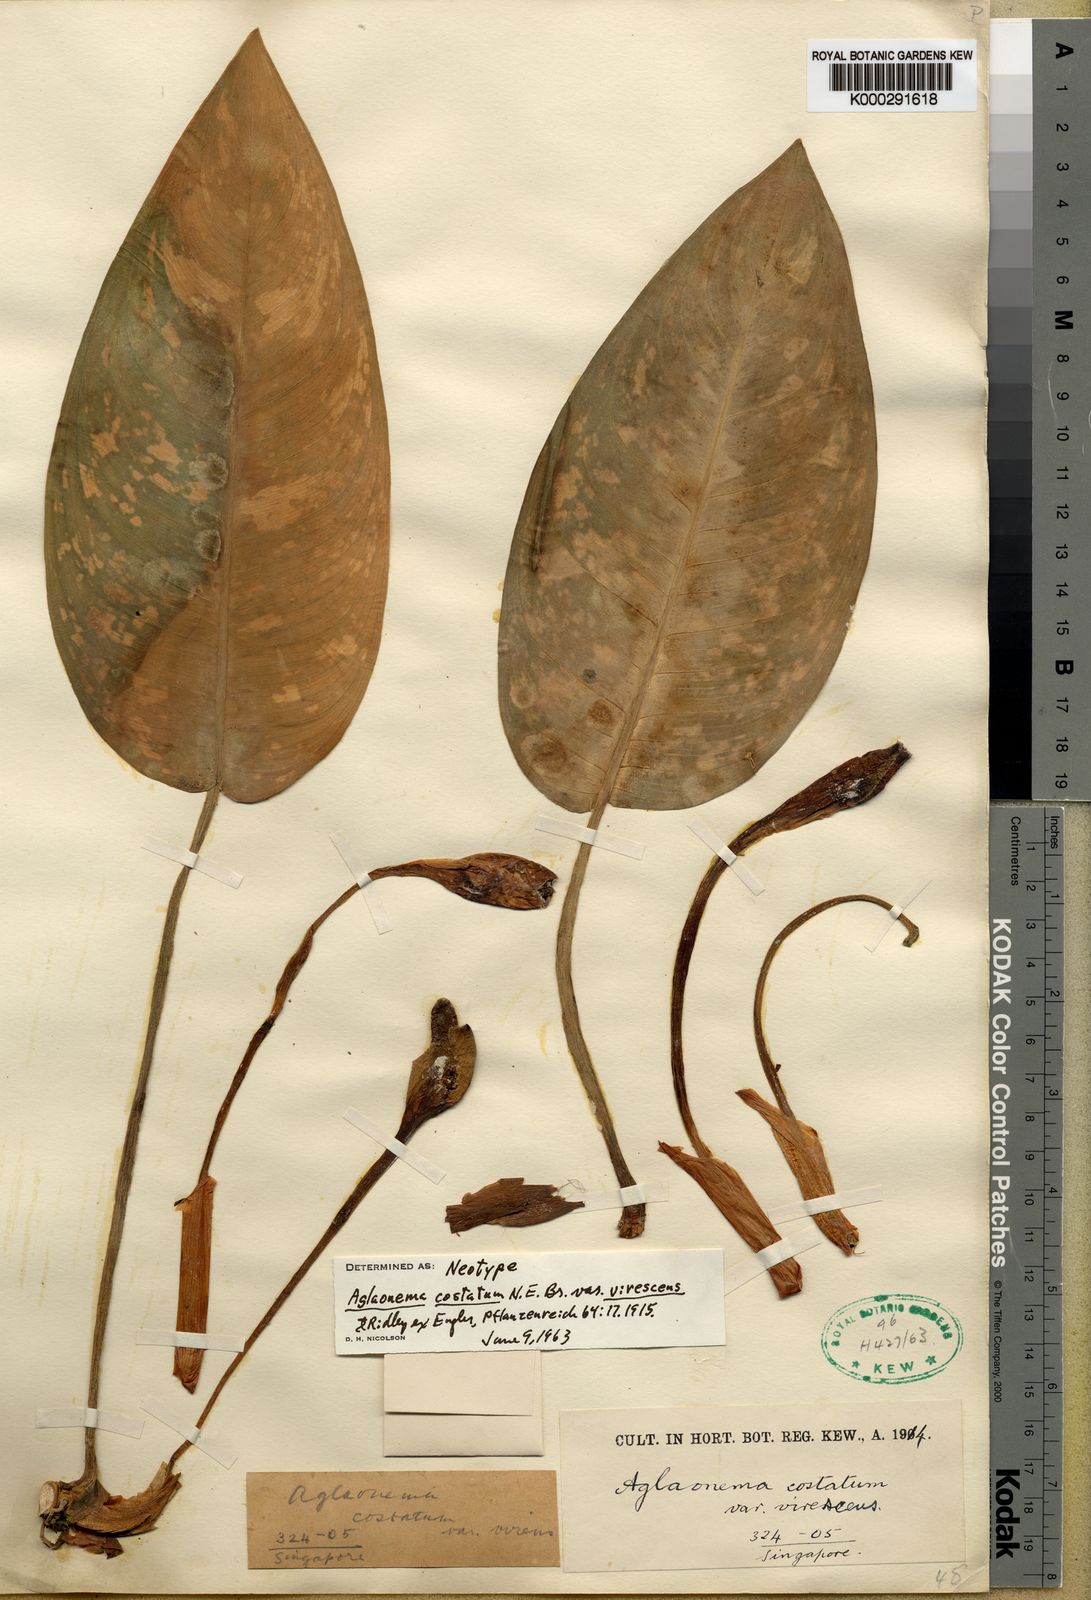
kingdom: Plantae
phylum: Tracheophyta
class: Liliopsida
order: Alismatales
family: Araceae
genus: Aglaonema
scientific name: Aglaonema costatum
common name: Chinese evergreen
